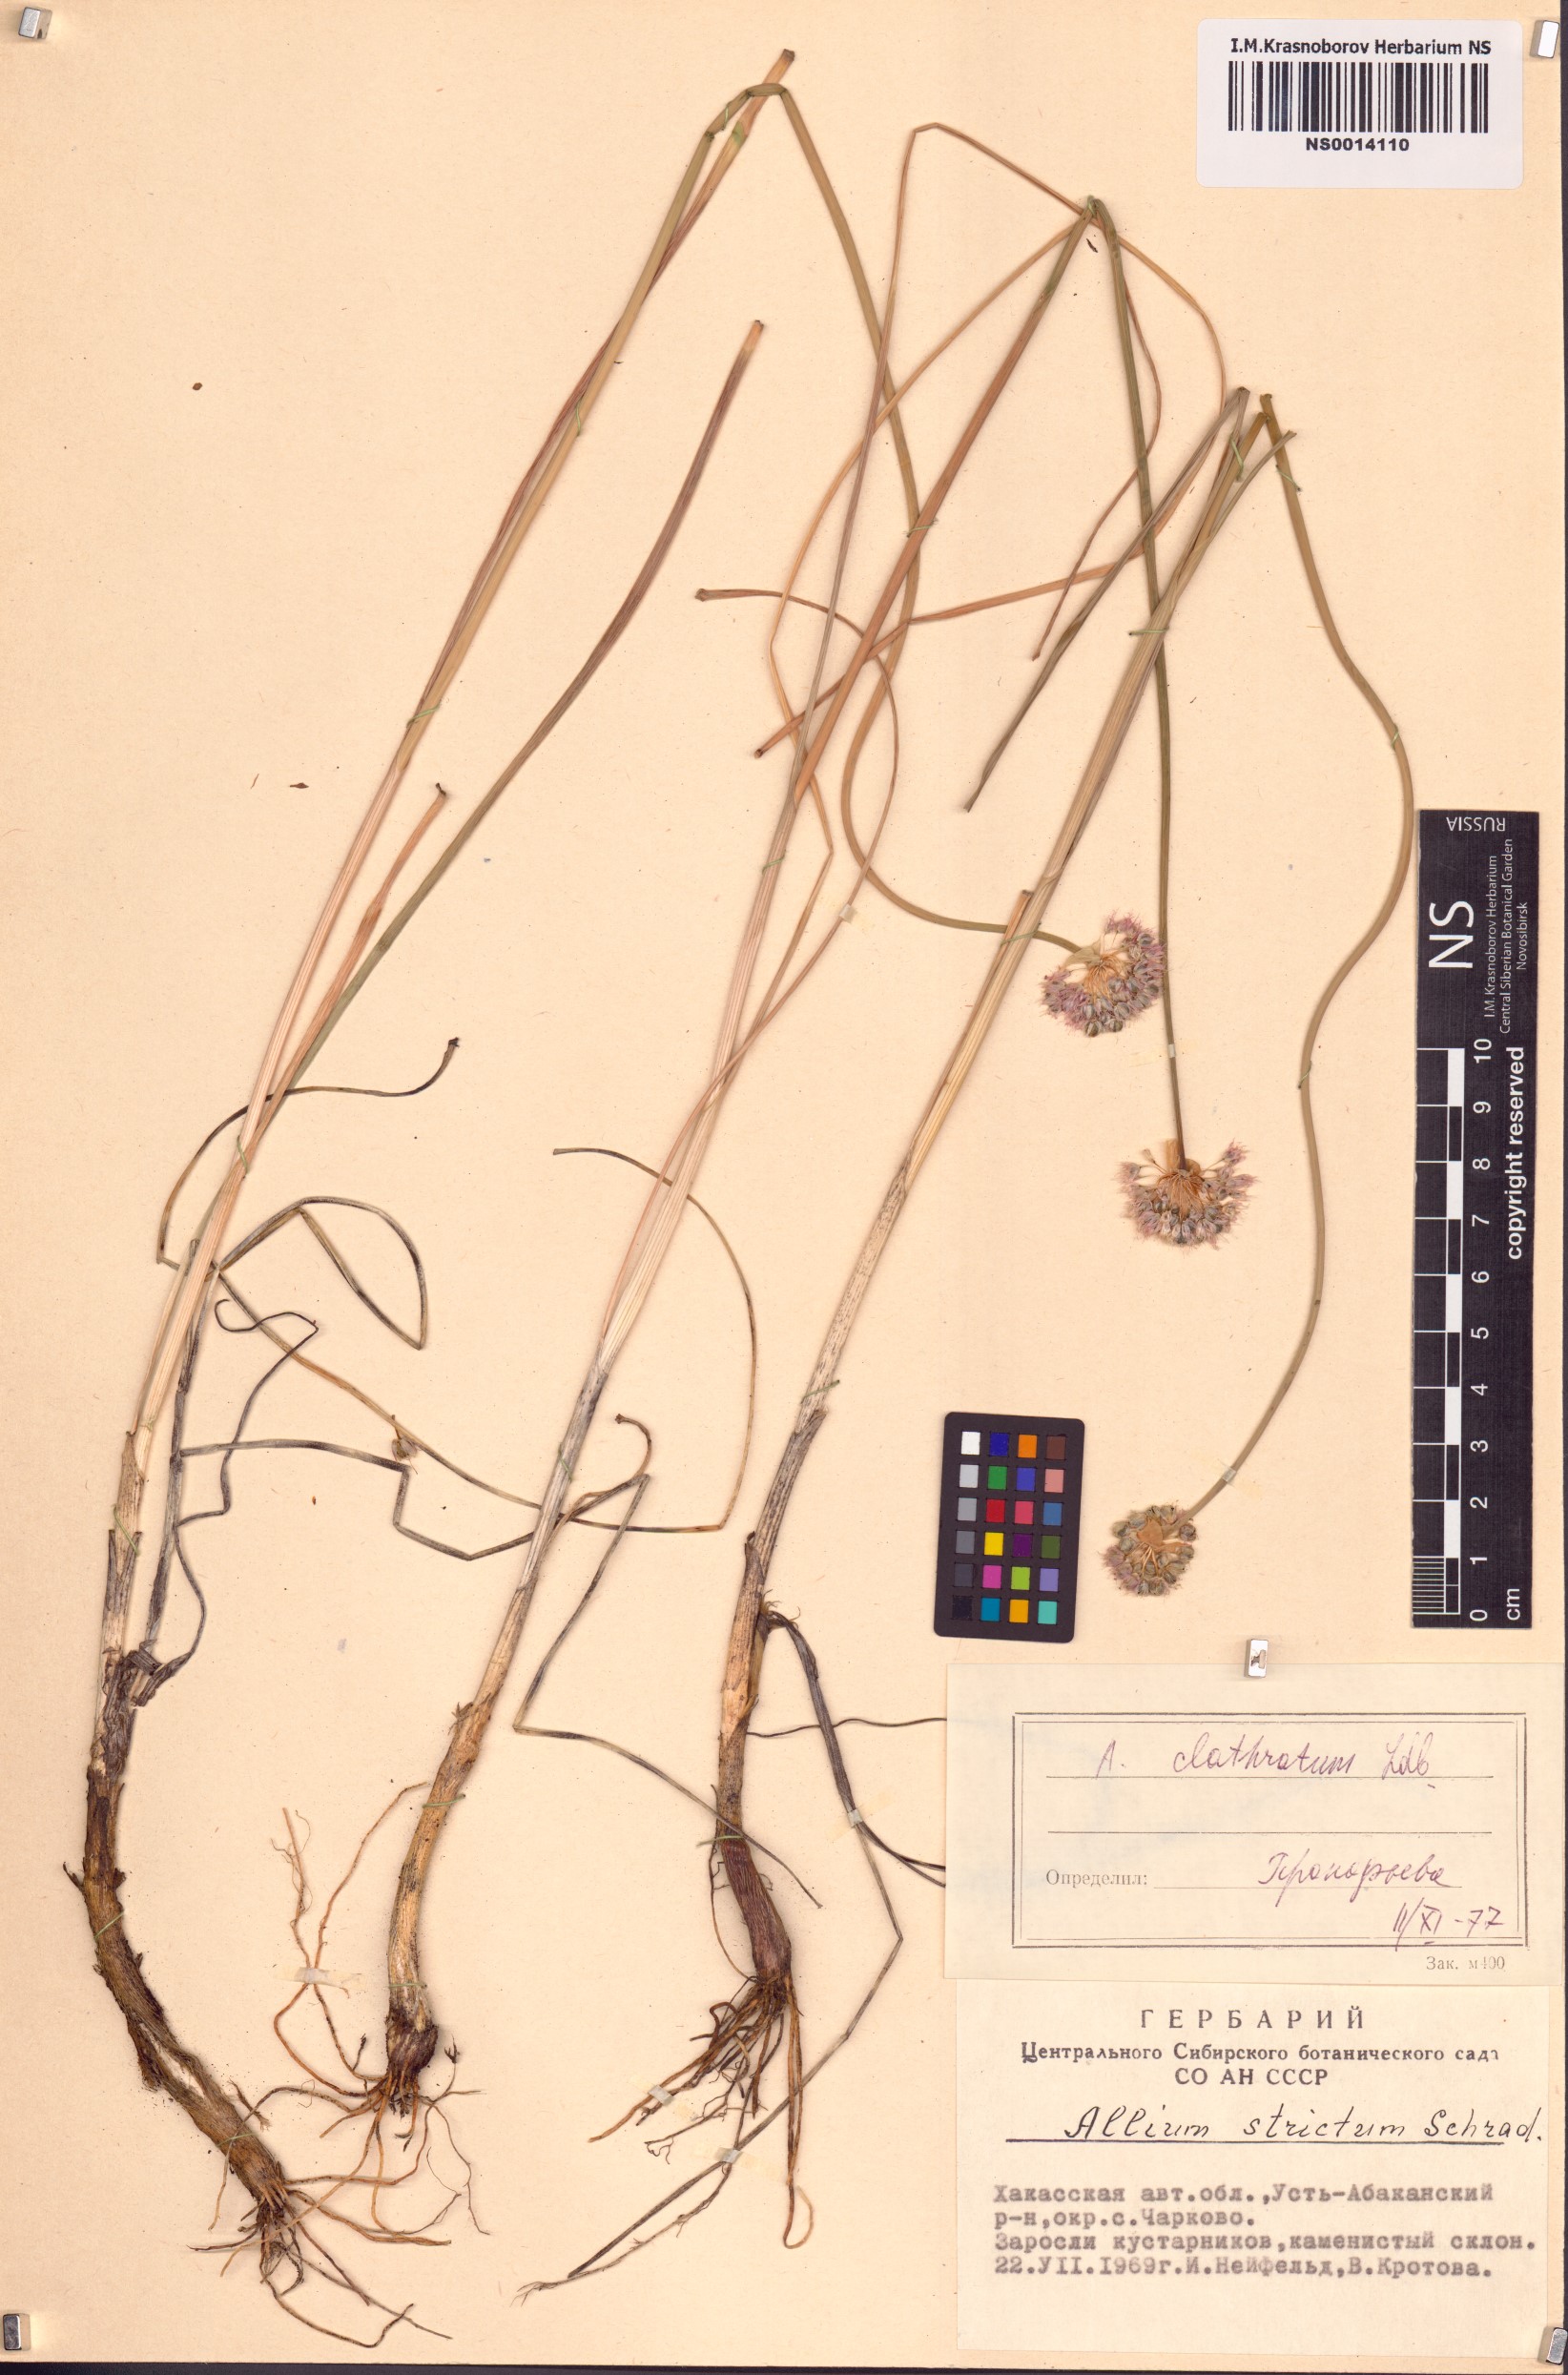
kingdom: Plantae
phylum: Tracheophyta
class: Liliopsida
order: Asparagales
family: Amaryllidaceae
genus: Allium
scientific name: Allium clathratum
